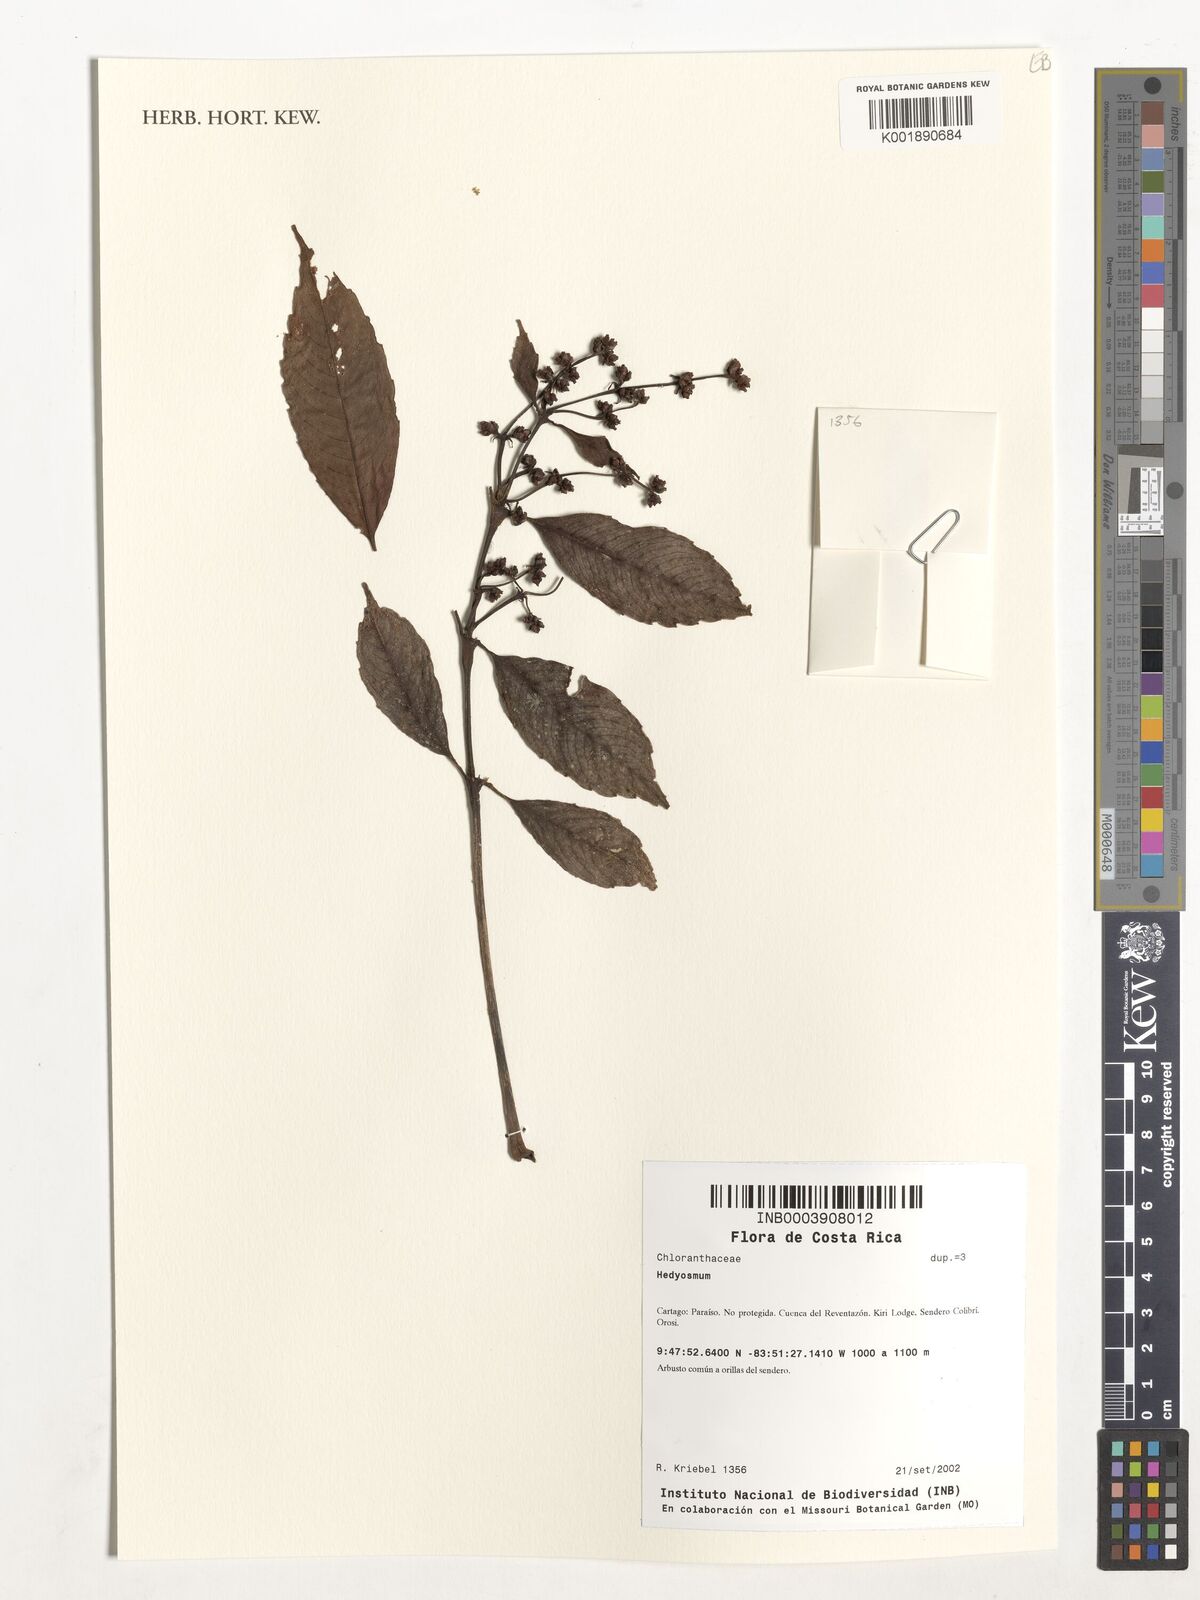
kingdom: Plantae
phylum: Tracheophyta
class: Magnoliopsida
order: Chloranthales
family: Chloranthaceae
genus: Hedyosmum
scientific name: Hedyosmum
